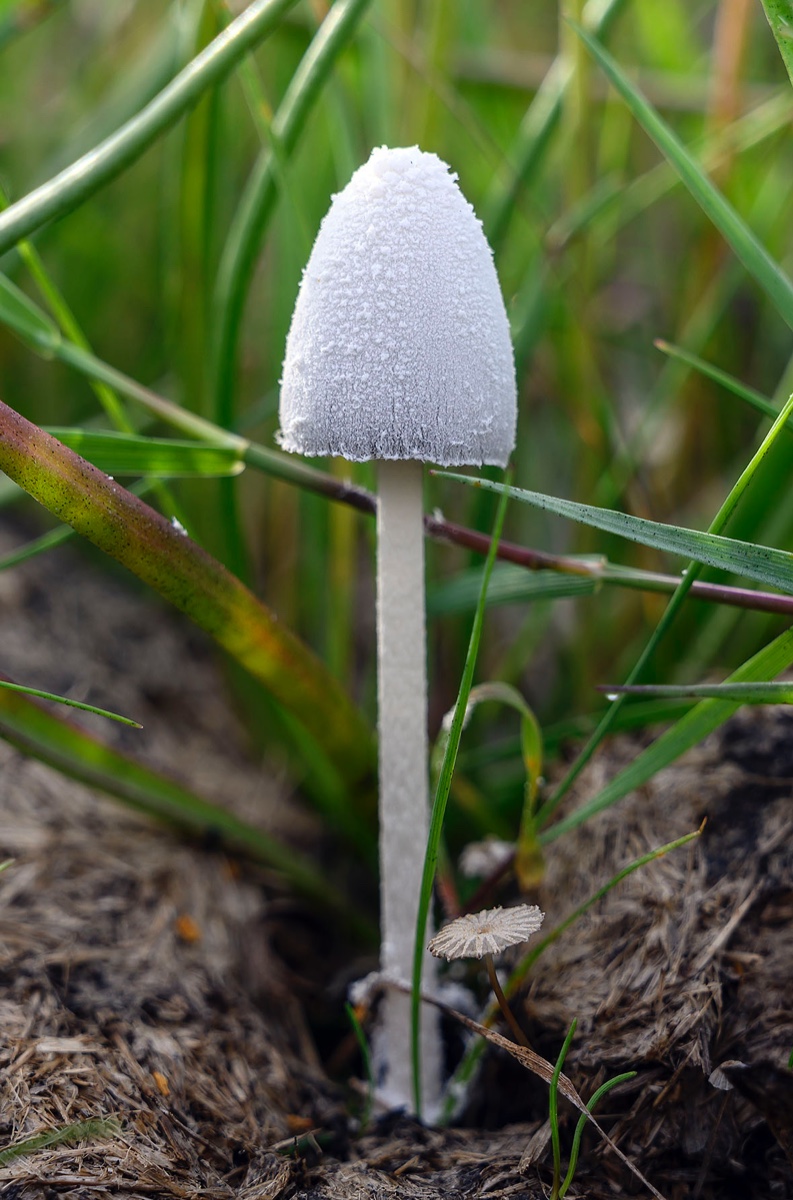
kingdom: Fungi
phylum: Basidiomycota
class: Agaricomycetes
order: Agaricales
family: Psathyrellaceae
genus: Coprinopsis
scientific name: Coprinopsis nivea
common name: snehvid blækhat
